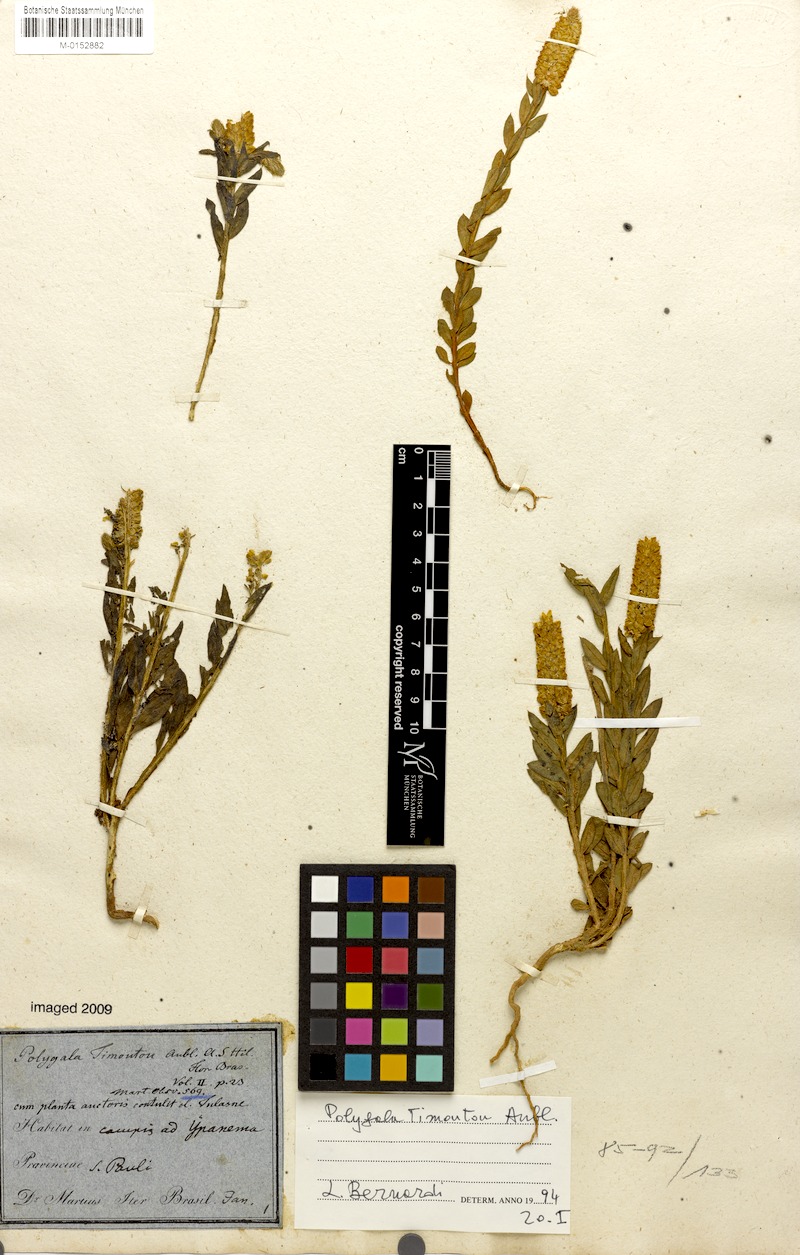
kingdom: Plantae
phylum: Tracheophyta
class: Magnoliopsida
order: Fabales
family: Polygalaceae
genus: Polygala
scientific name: Polygala timoutou
